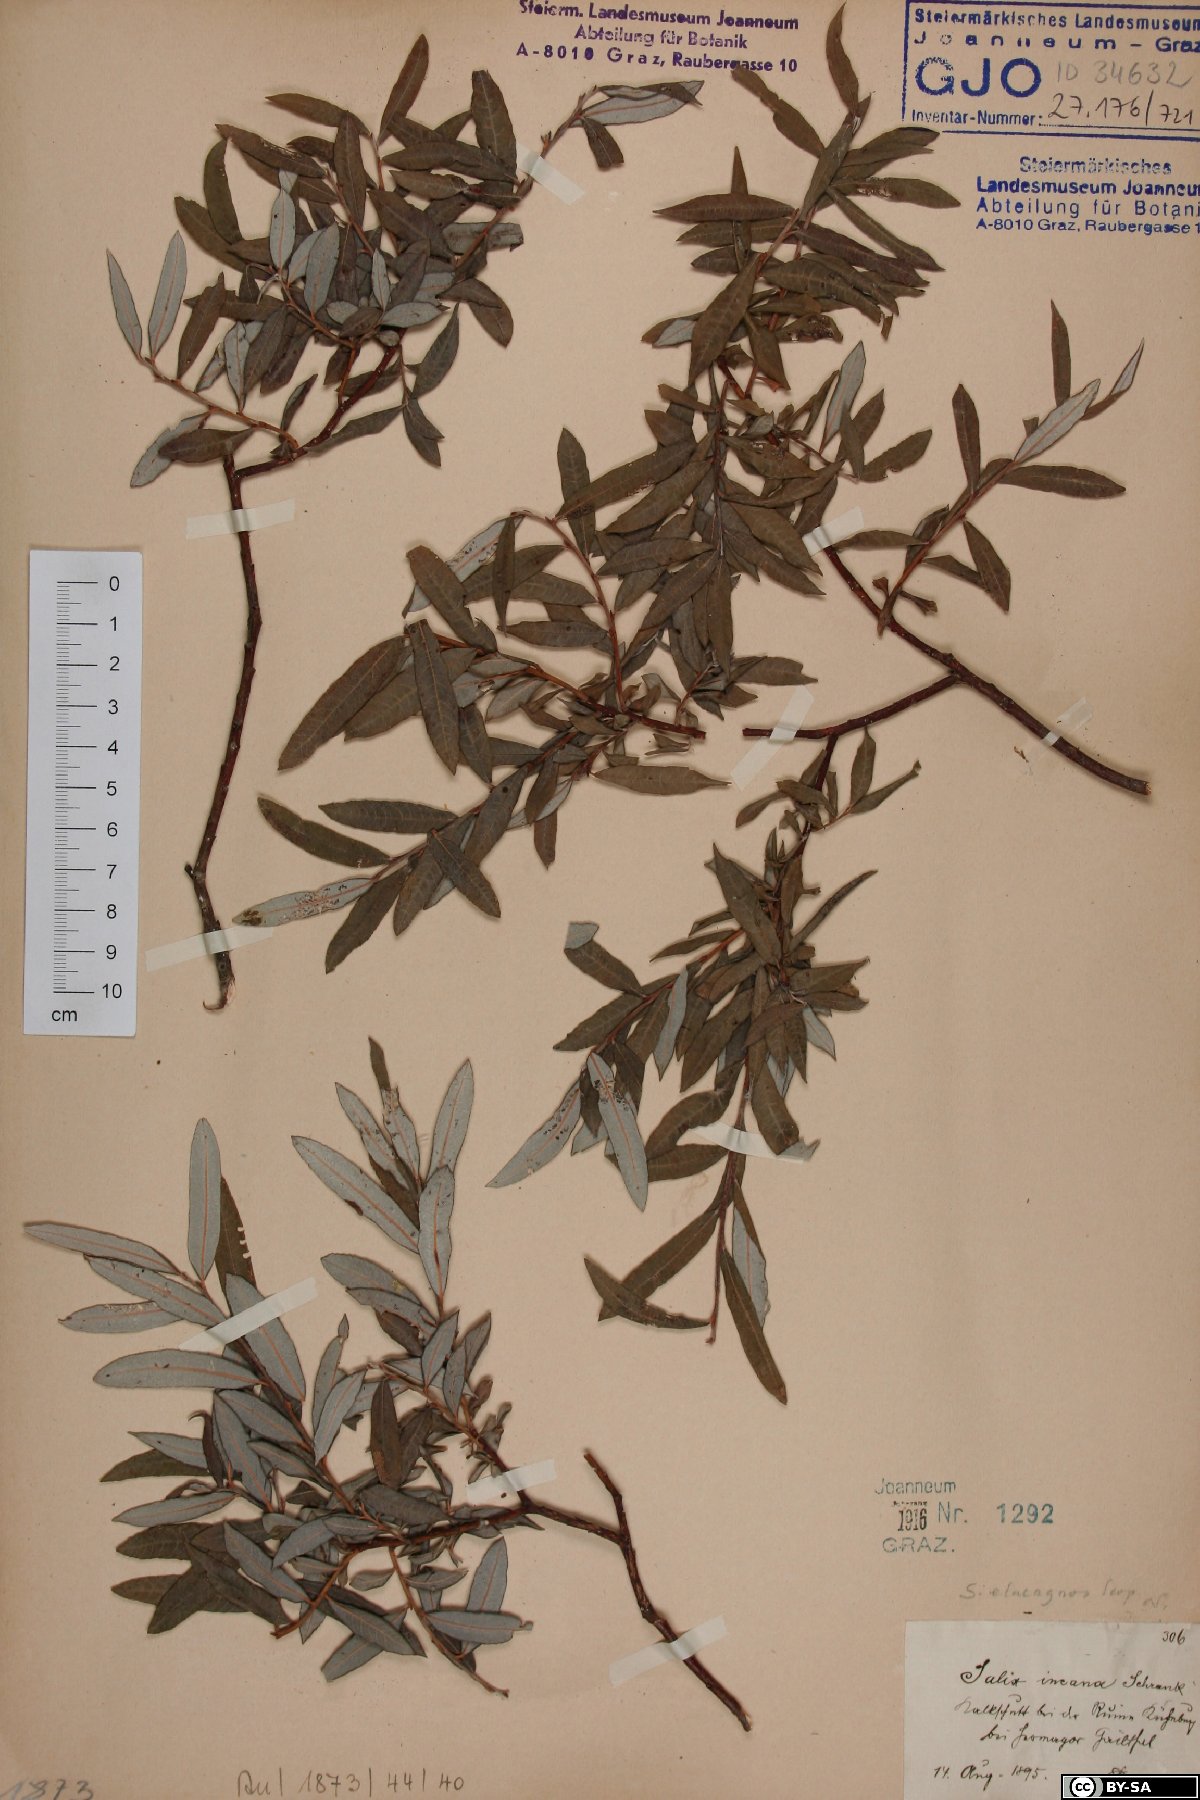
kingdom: Plantae
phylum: Tracheophyta
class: Magnoliopsida
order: Malpighiales
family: Salicaceae
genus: Salix
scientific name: Salix eleagnos
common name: Elaeagnus willow
